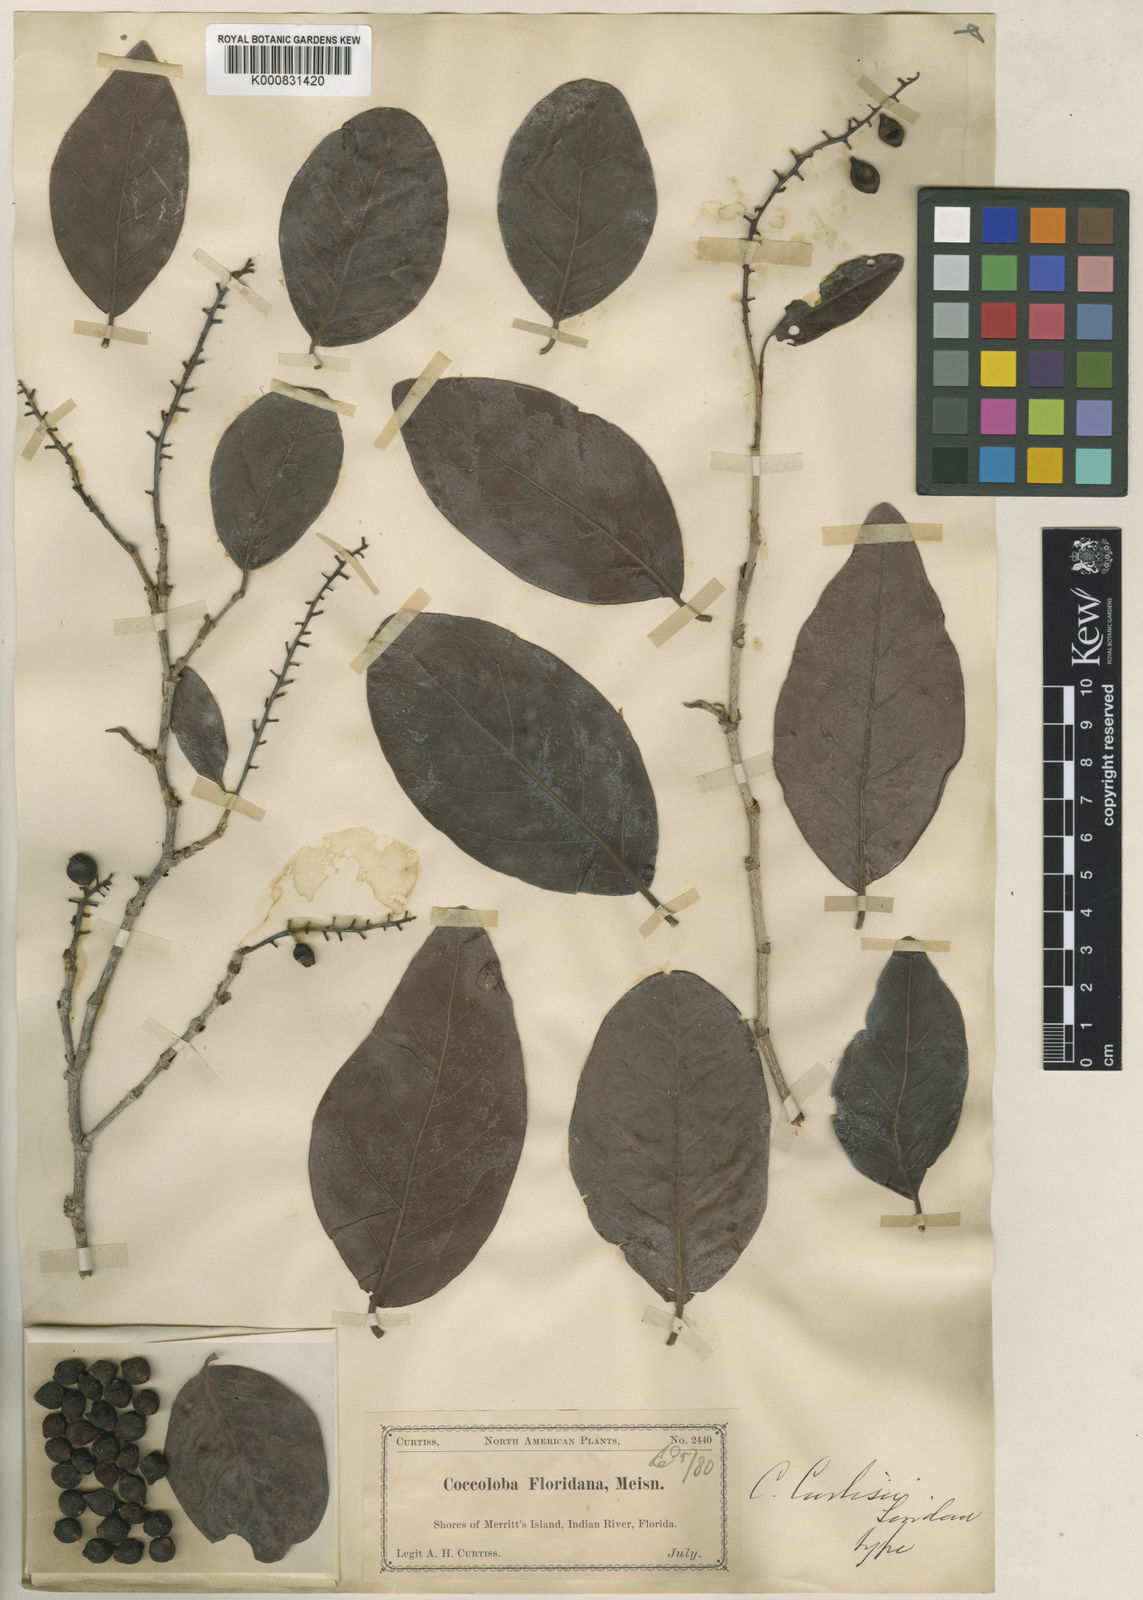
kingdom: Plantae
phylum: Tracheophyta
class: Magnoliopsida
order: Caryophyllales
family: Polygonaceae
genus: Coccoloba
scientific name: Coccoloba diversifolia
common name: Pigeon-plum
